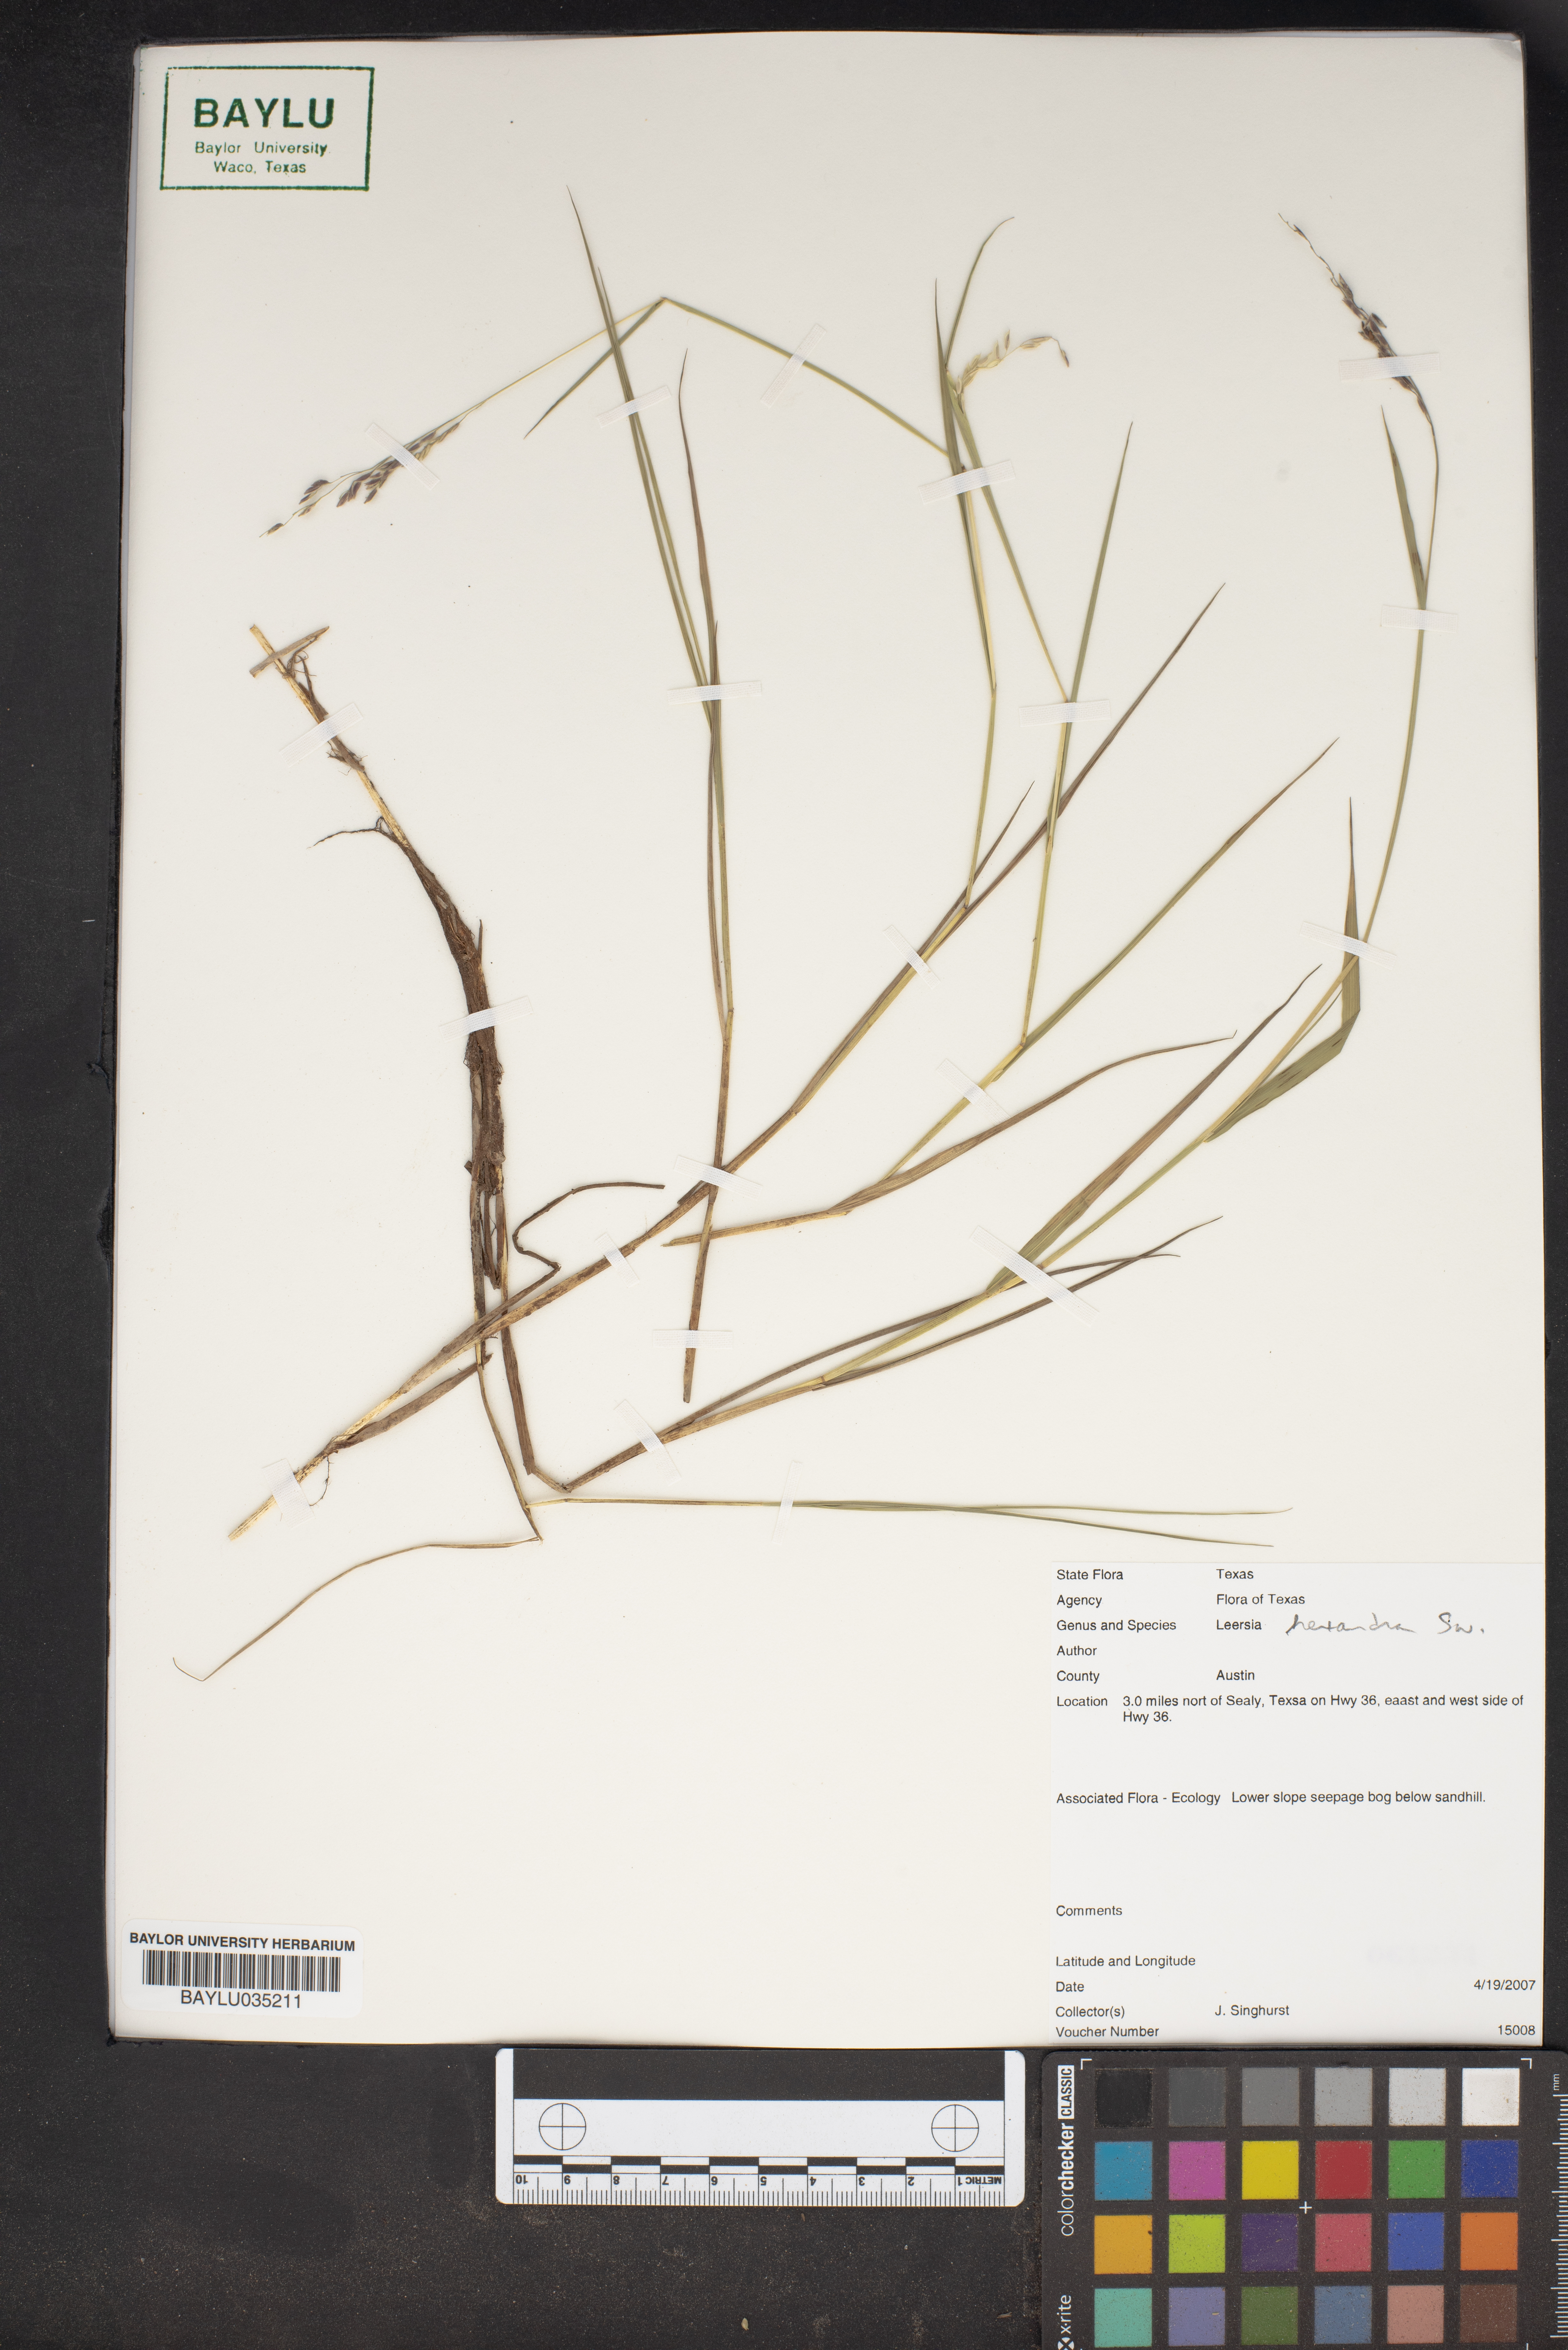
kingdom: Plantae
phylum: Tracheophyta
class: Liliopsida
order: Poales
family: Poaceae
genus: Leersia
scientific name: Leersia hexandra
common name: Southern cut grass
